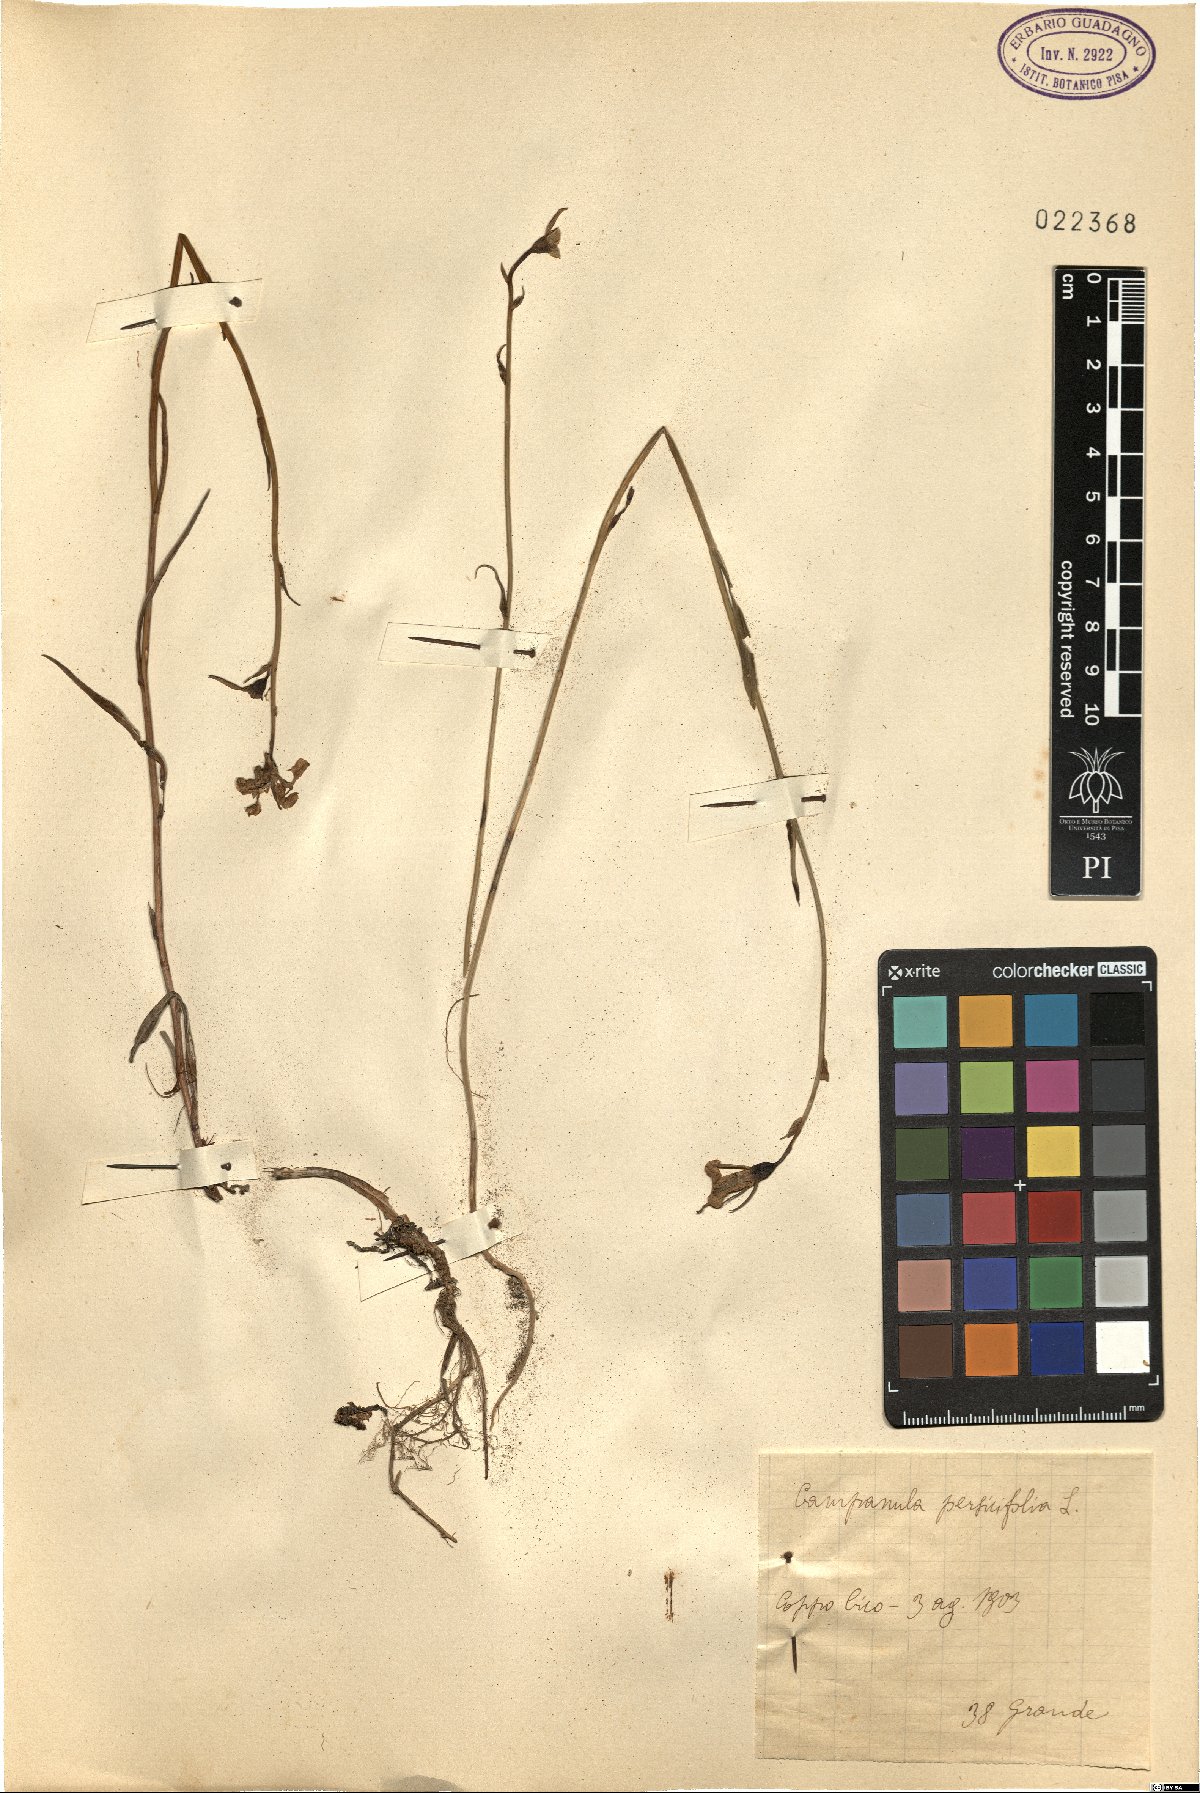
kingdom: Plantae
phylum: Tracheophyta
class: Magnoliopsida
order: Asterales
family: Campanulaceae
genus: Campanula
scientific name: Campanula persicifolia
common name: Peach-leaved bellflower
